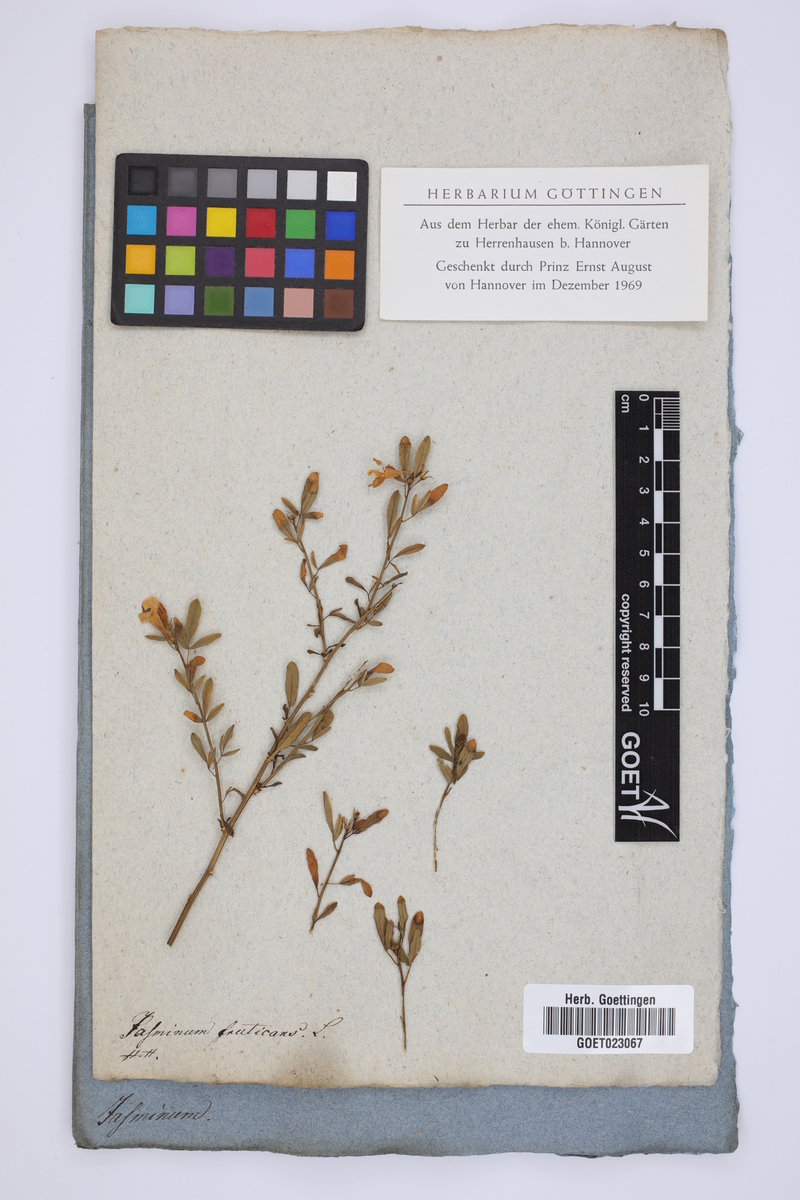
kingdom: Plantae
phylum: Tracheophyta
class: Magnoliopsida
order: Lamiales
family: Oleaceae
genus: Chrysojasminum
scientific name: Chrysojasminum fruticans
